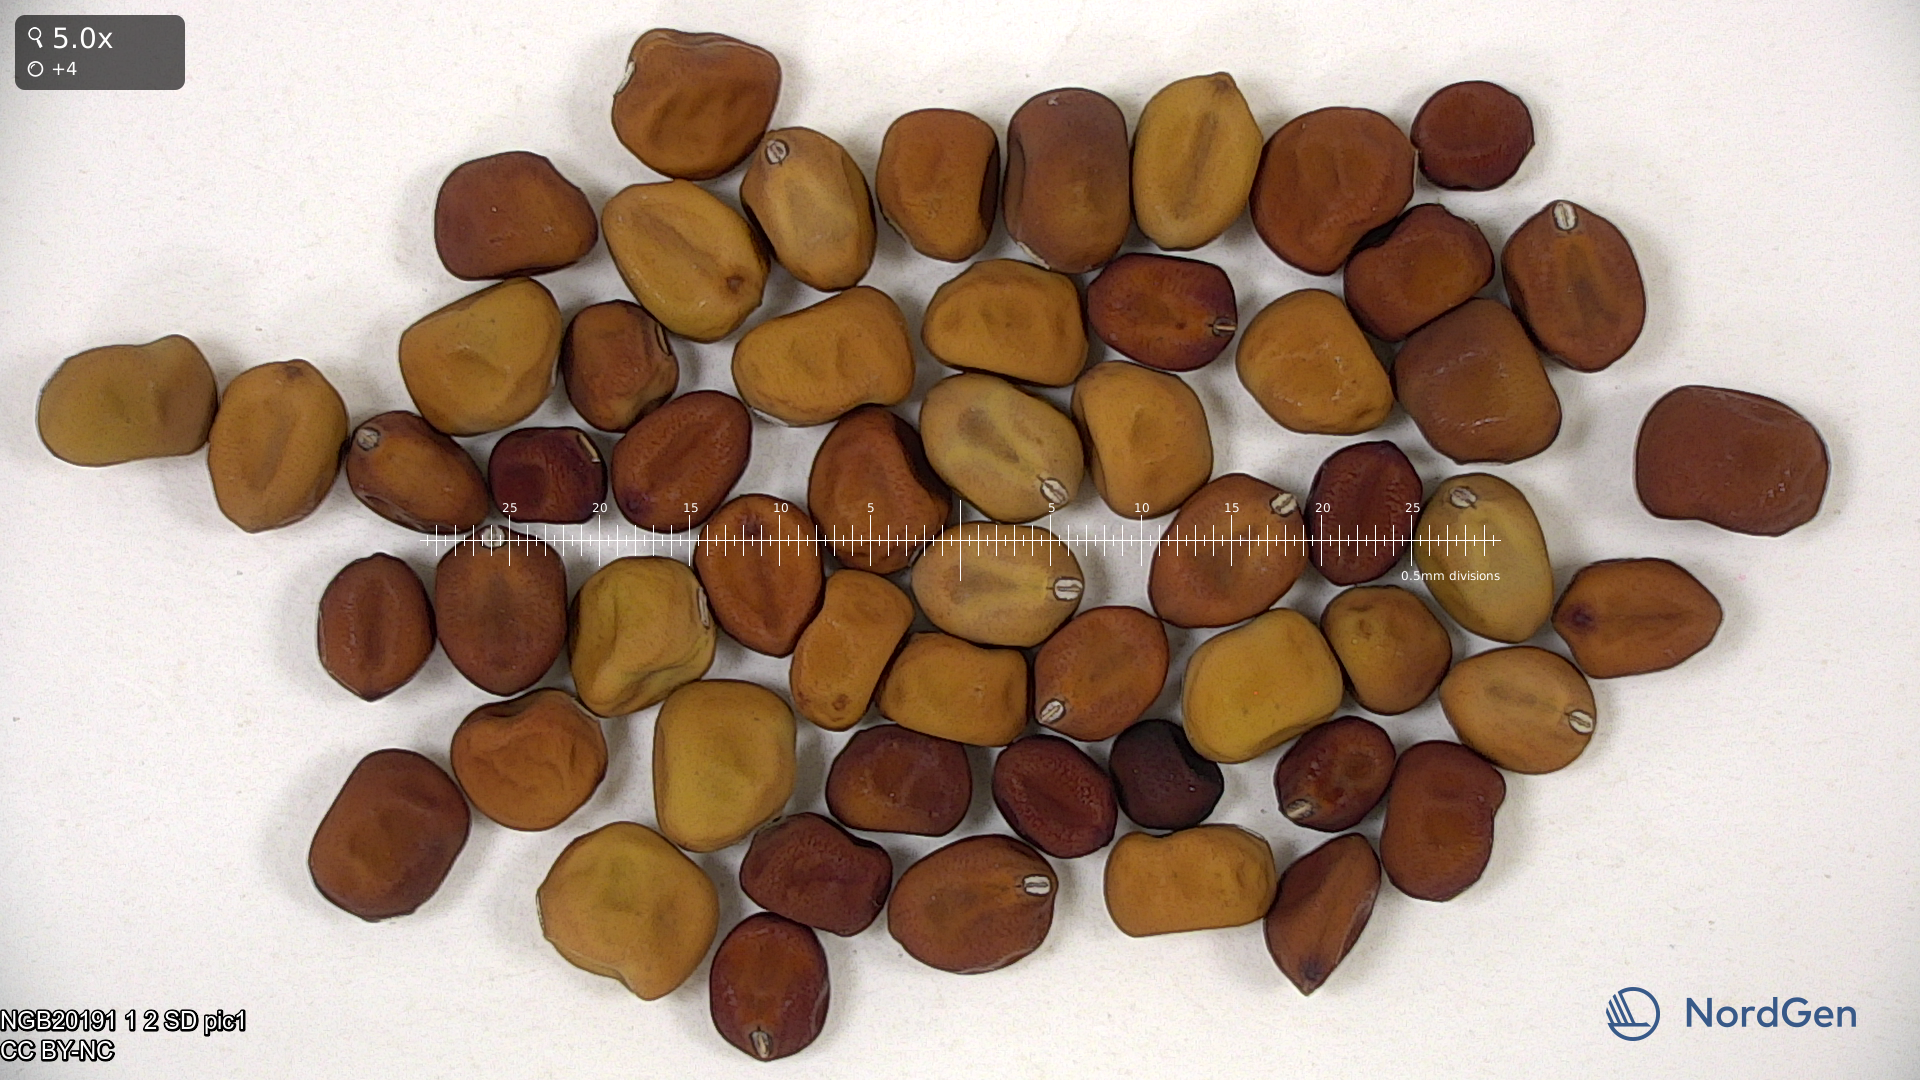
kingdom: Plantae
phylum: Tracheophyta
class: Magnoliopsida
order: Fabales
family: Fabaceae
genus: Lathyrus
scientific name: Lathyrus oleraceus
